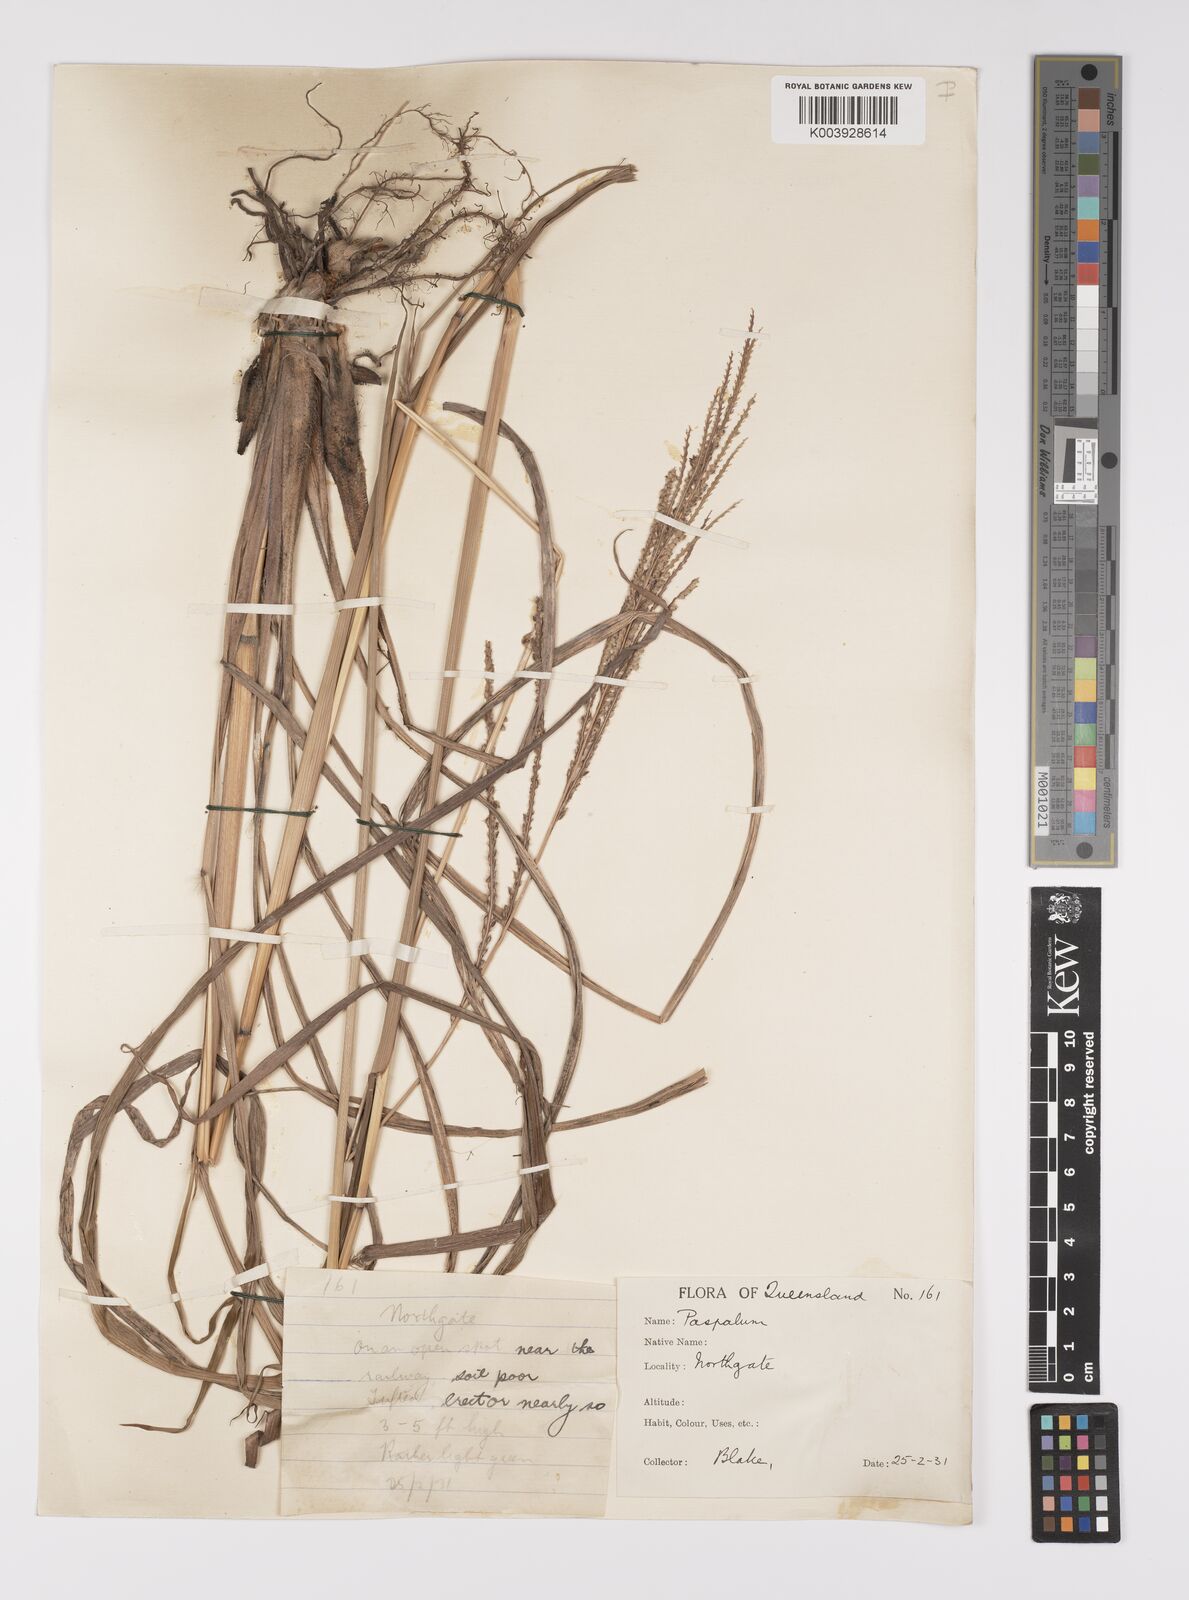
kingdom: Plantae
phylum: Tracheophyta
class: Liliopsida
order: Poales
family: Poaceae
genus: Paspalum
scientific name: Paspalum urvillei
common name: Vasey's grass
